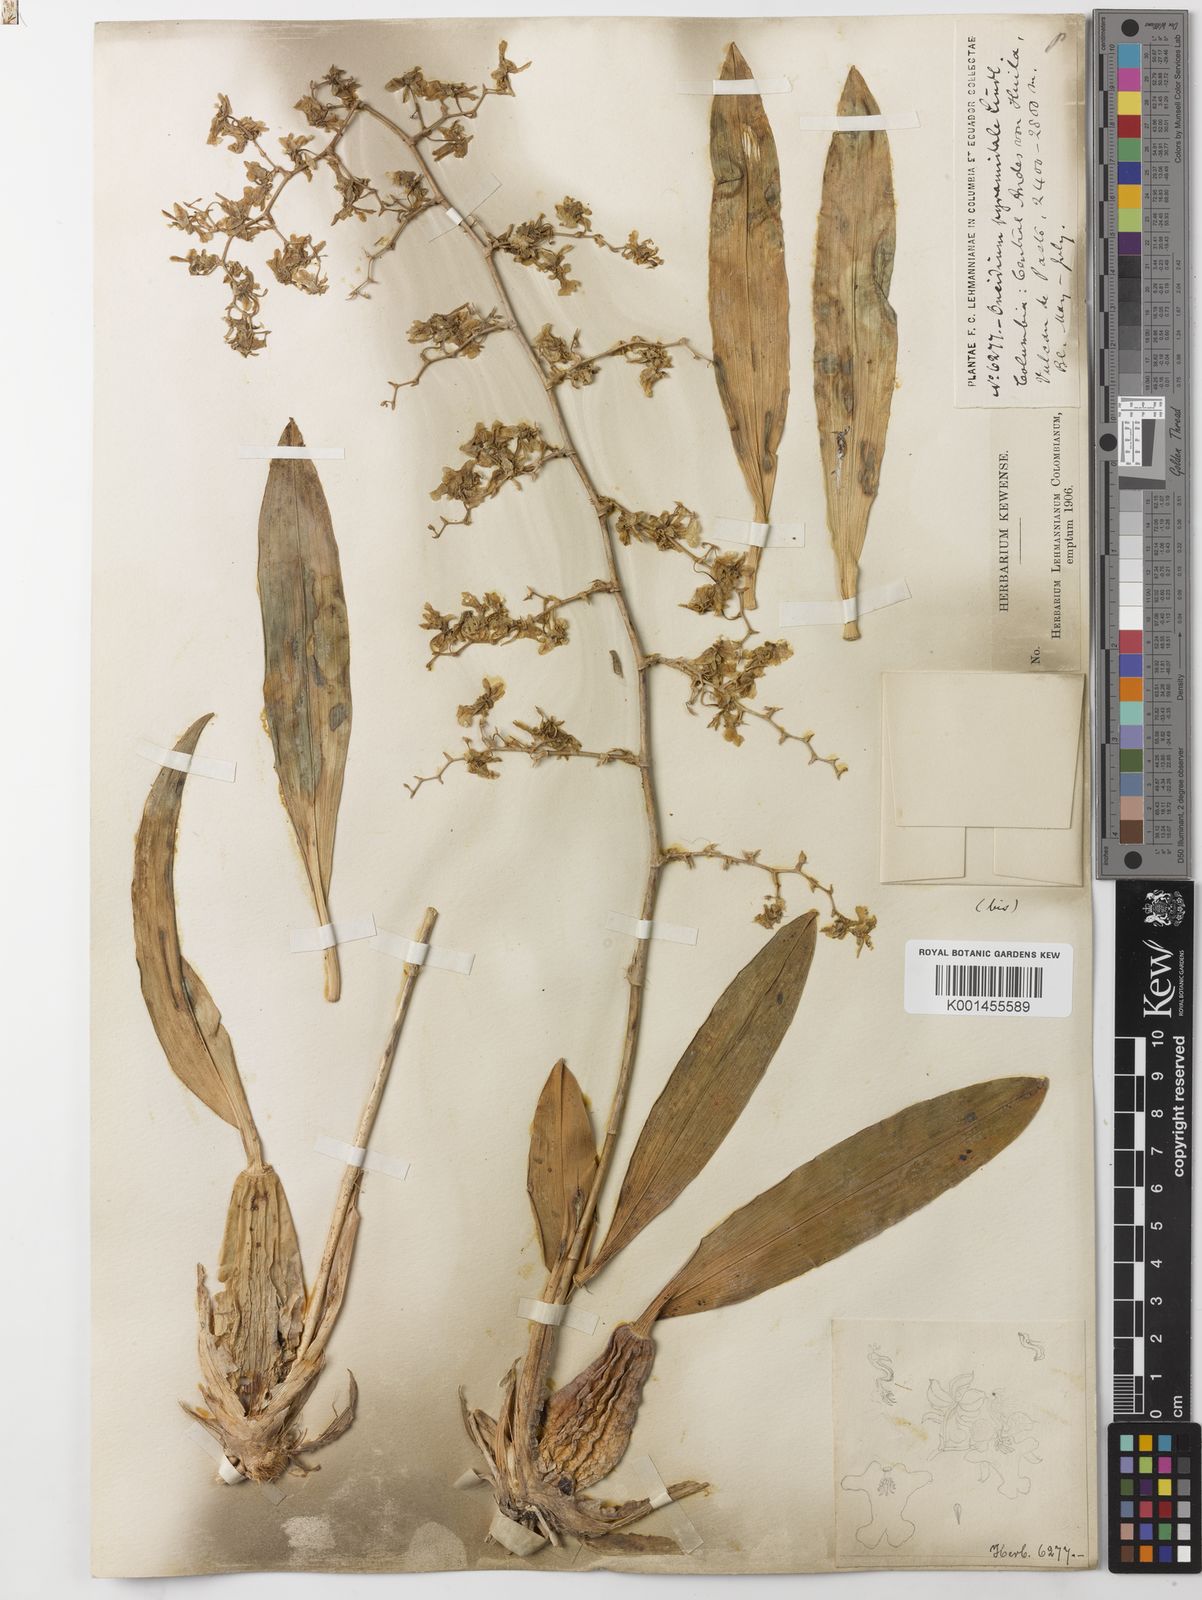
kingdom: Plantae
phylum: Tracheophyta
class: Liliopsida
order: Asparagales
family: Orchidaceae
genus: Oncidium
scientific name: Oncidium ornithorhynchum
